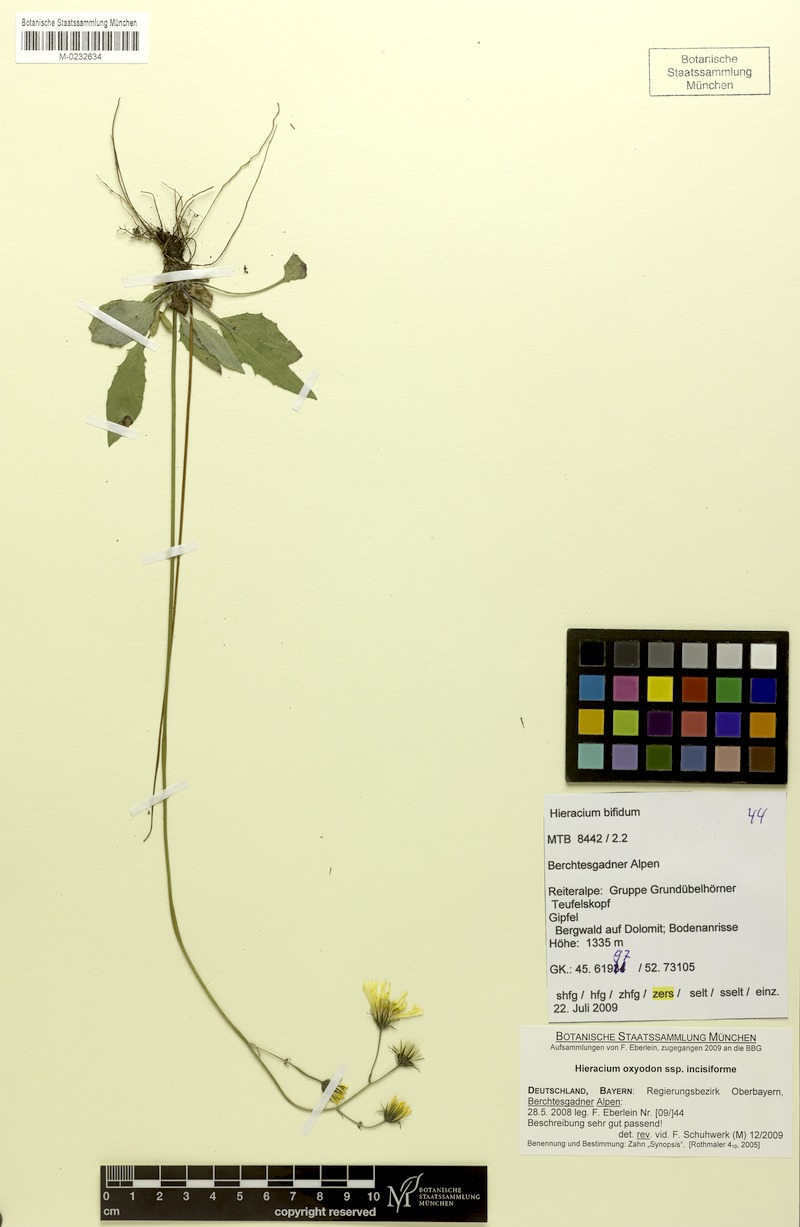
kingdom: Plantae
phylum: Tracheophyta
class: Magnoliopsida
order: Asterales
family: Asteraceae
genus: Hieracium
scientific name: Hieracium valoddae
